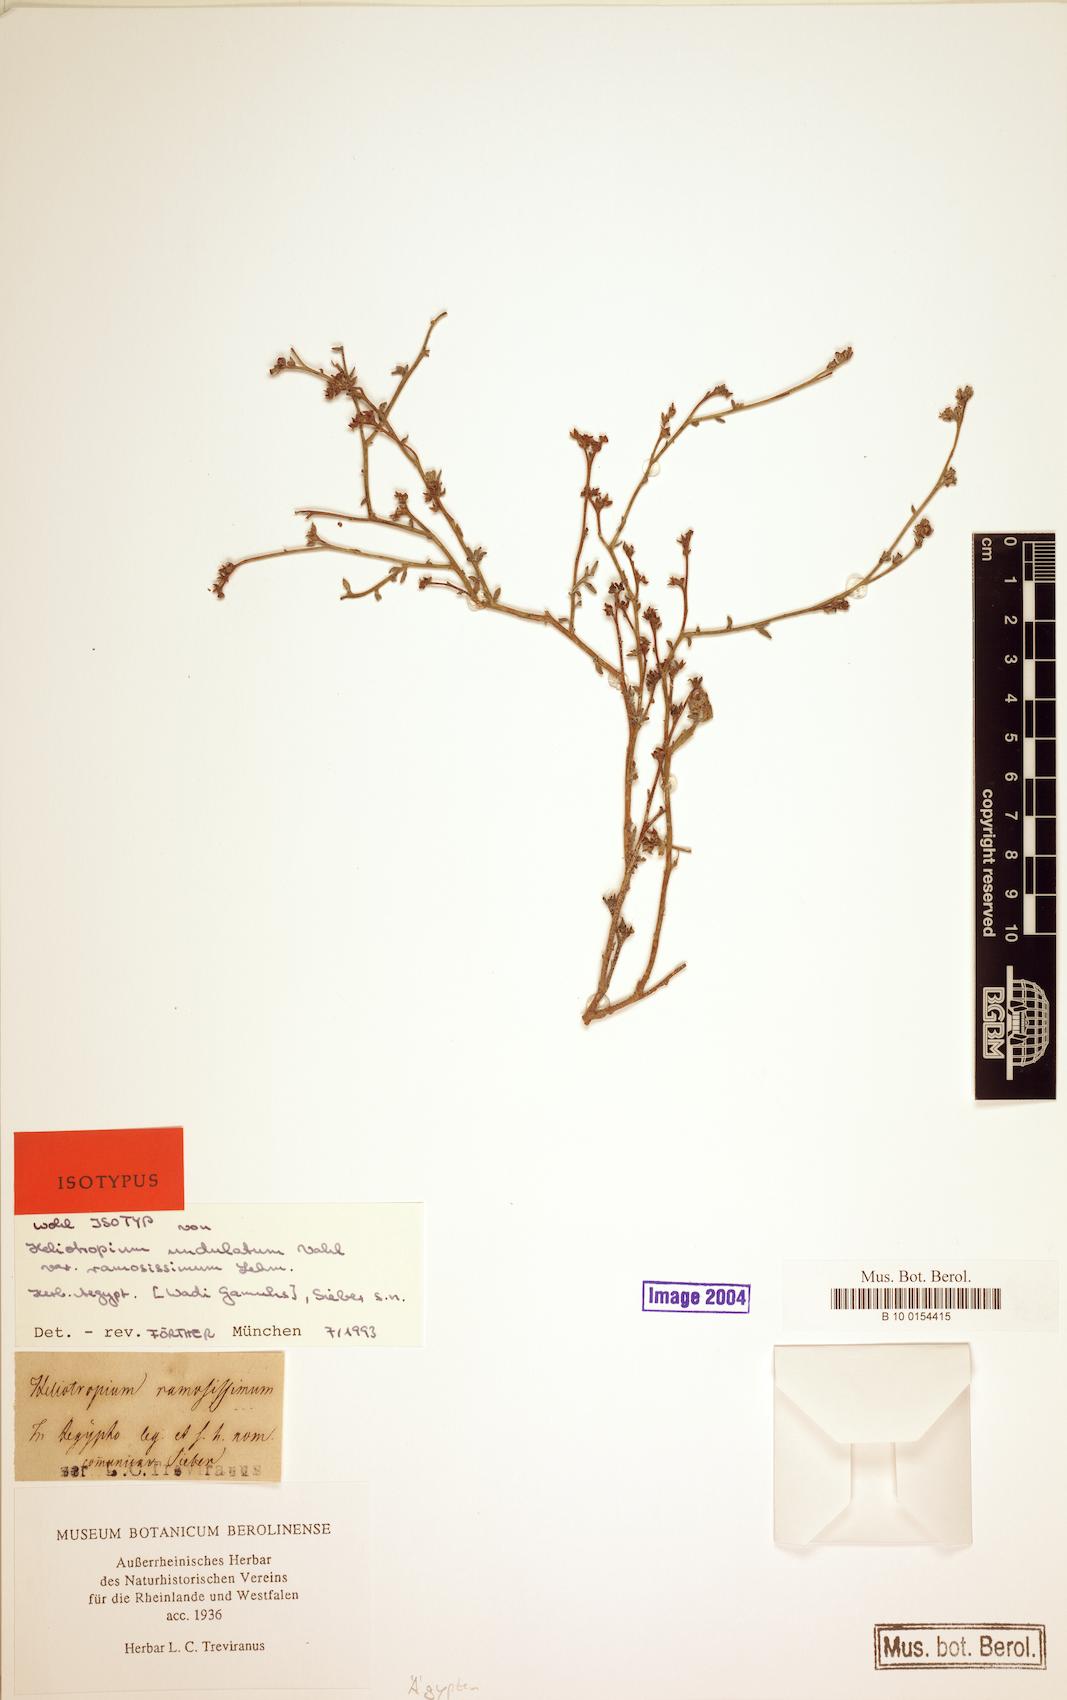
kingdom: Plantae
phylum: Tracheophyta
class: Magnoliopsida
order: Boraginales
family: Heliotropiaceae
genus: Heliotropium
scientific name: Heliotropium ramosissimum
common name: Wavy heliotrope
